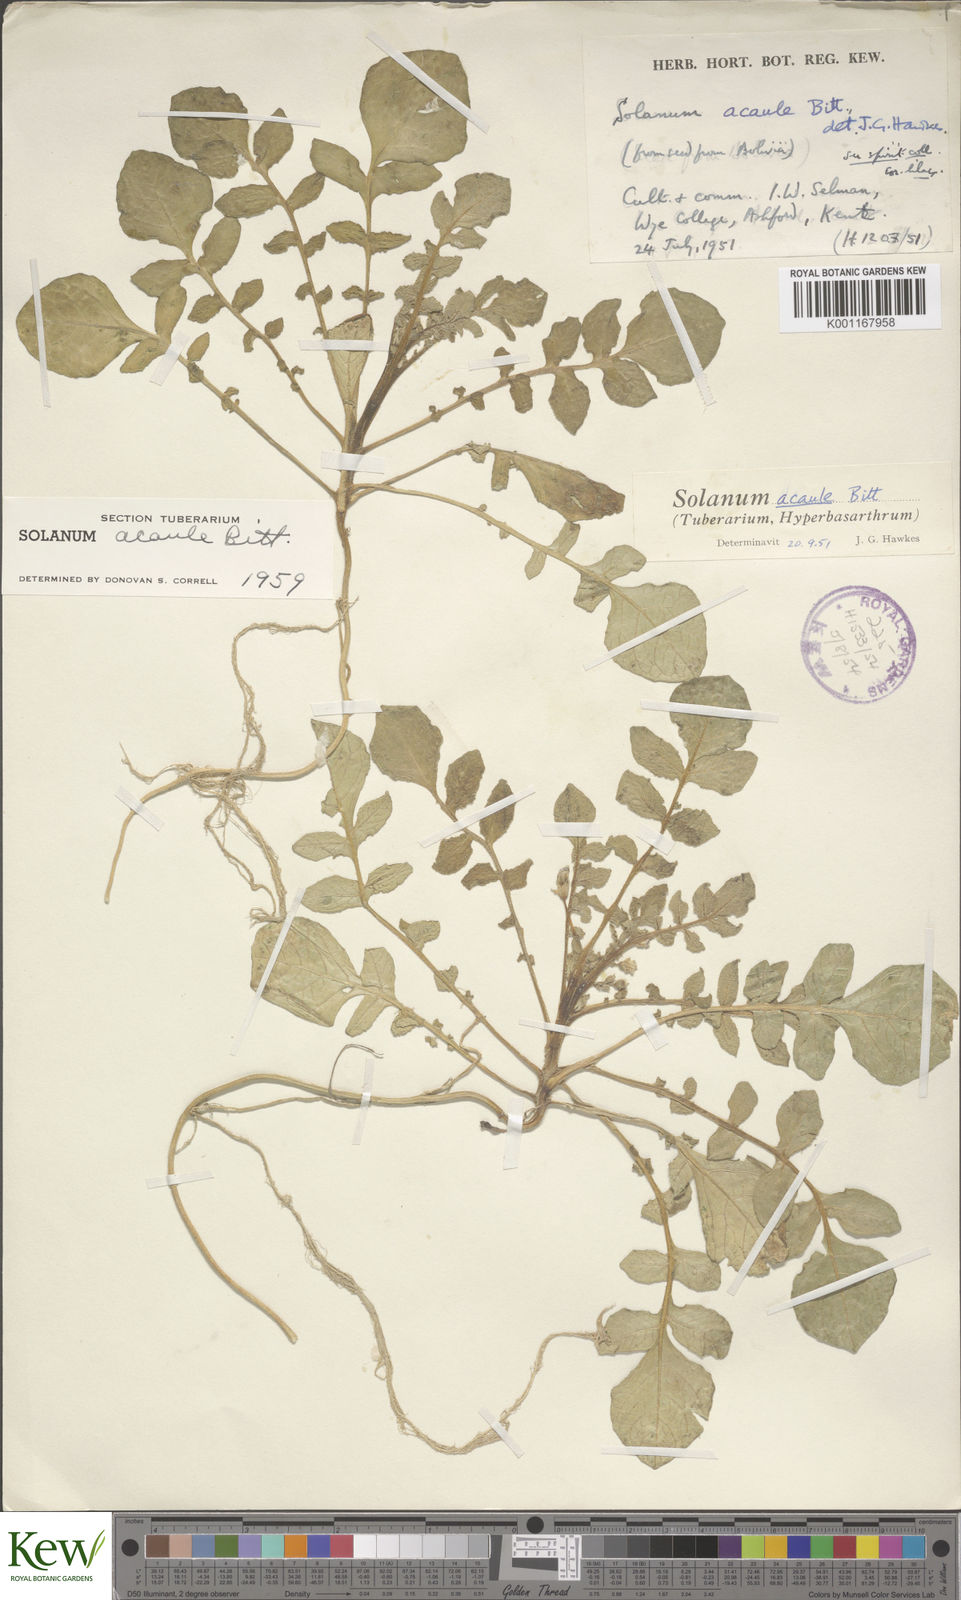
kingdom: Plantae
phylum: Tracheophyta
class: Magnoliopsida
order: Solanales
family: Solanaceae
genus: Solanum
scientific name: Solanum acaule
